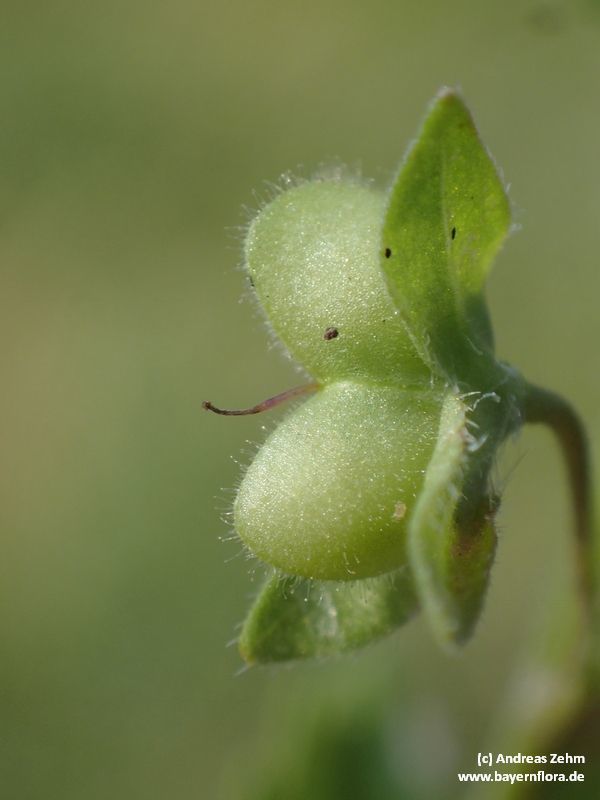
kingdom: Plantae
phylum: Tracheophyta
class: Magnoliopsida
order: Lamiales
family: Plantaginaceae
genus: Veronica
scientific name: Veronica persica
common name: Common field-speedwell
